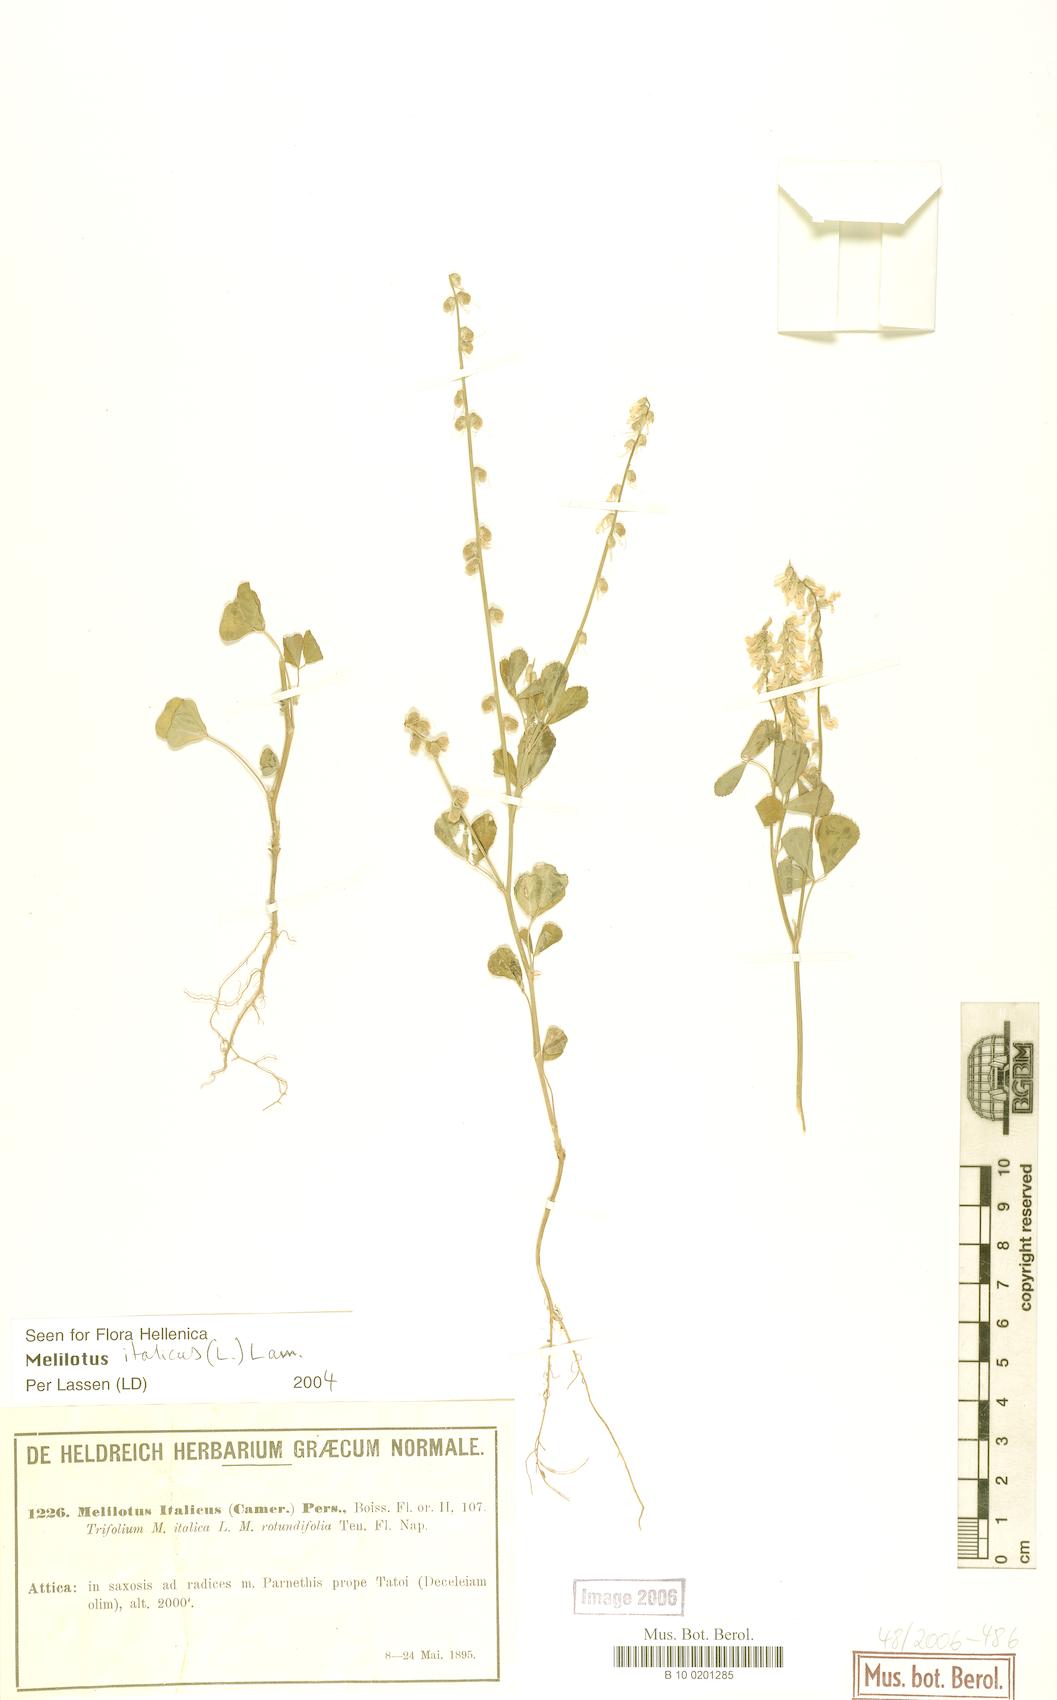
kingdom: Plantae
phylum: Tracheophyta
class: Magnoliopsida
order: Fabales
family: Fabaceae
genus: Melilotus
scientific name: Melilotus italicus
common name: Italian melilot
